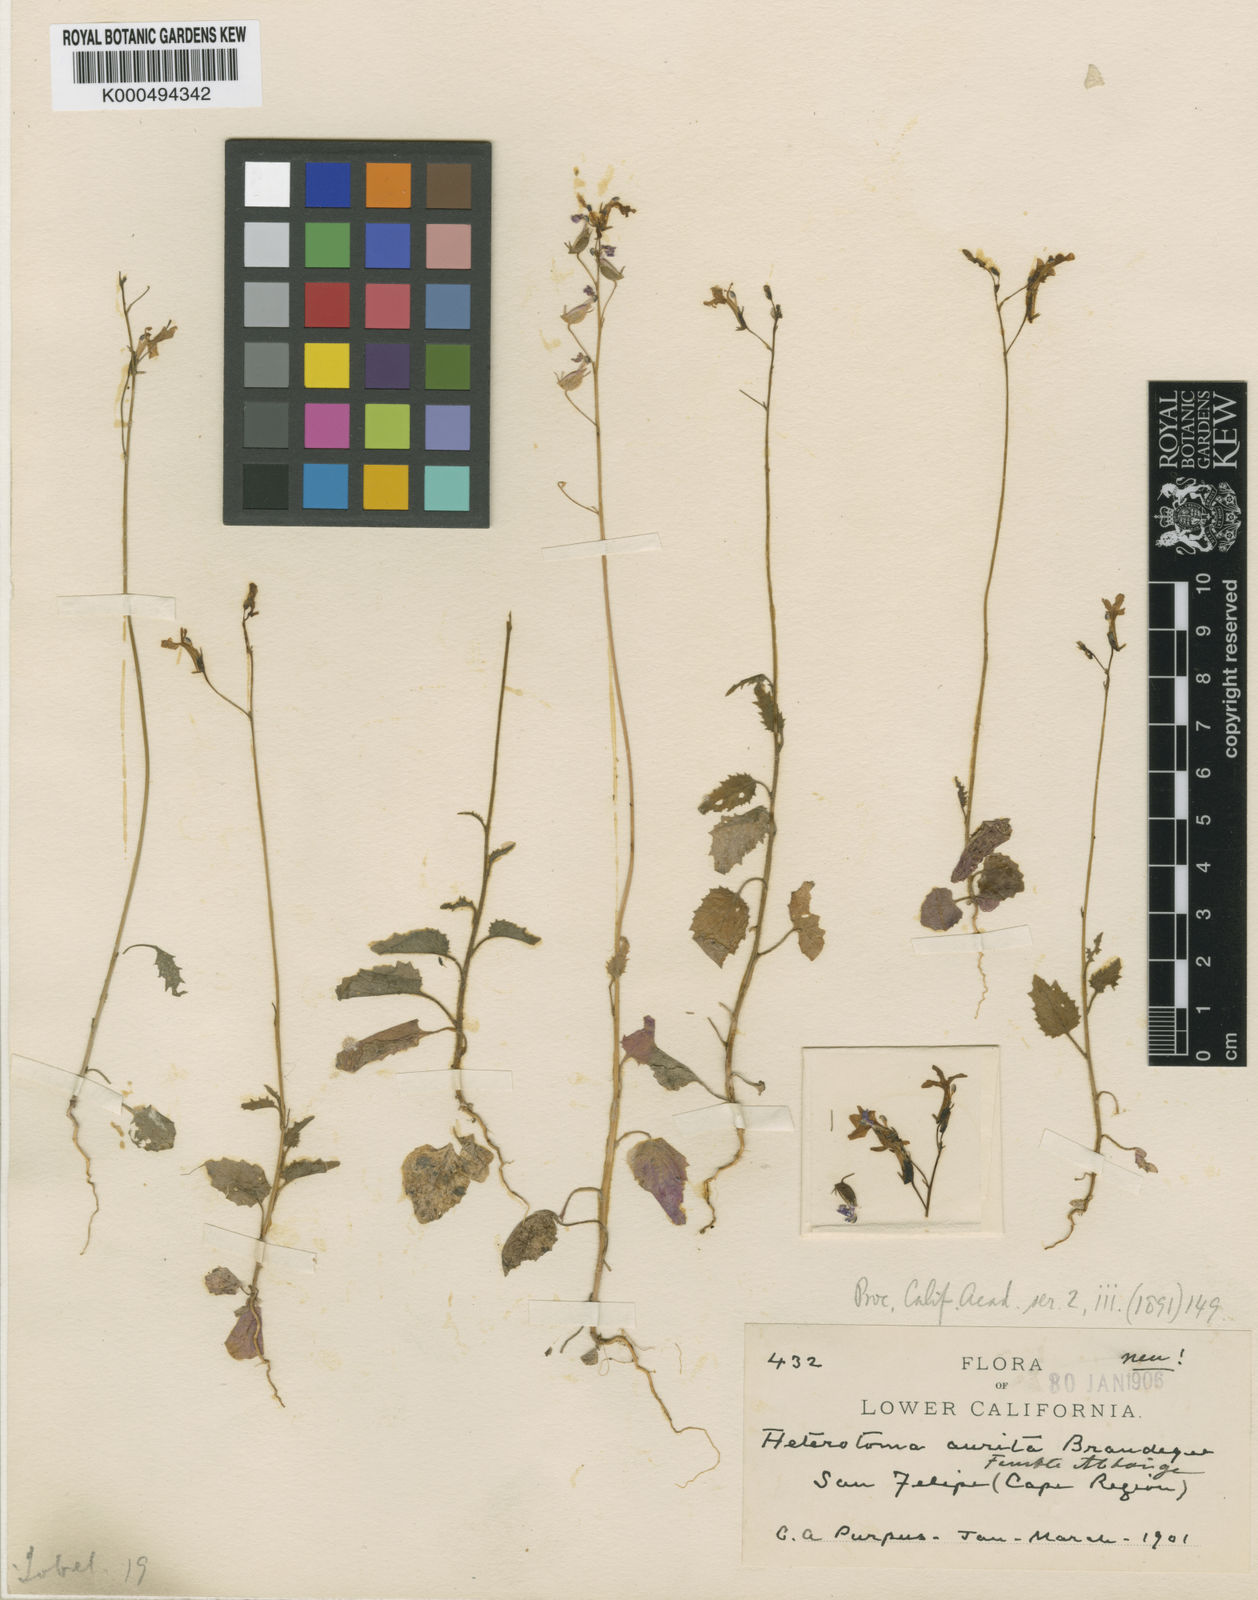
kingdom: Plantae
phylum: Tracheophyta
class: Magnoliopsida
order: Asterales
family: Campanulaceae
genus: Lobelia
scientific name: Lobelia aurita
